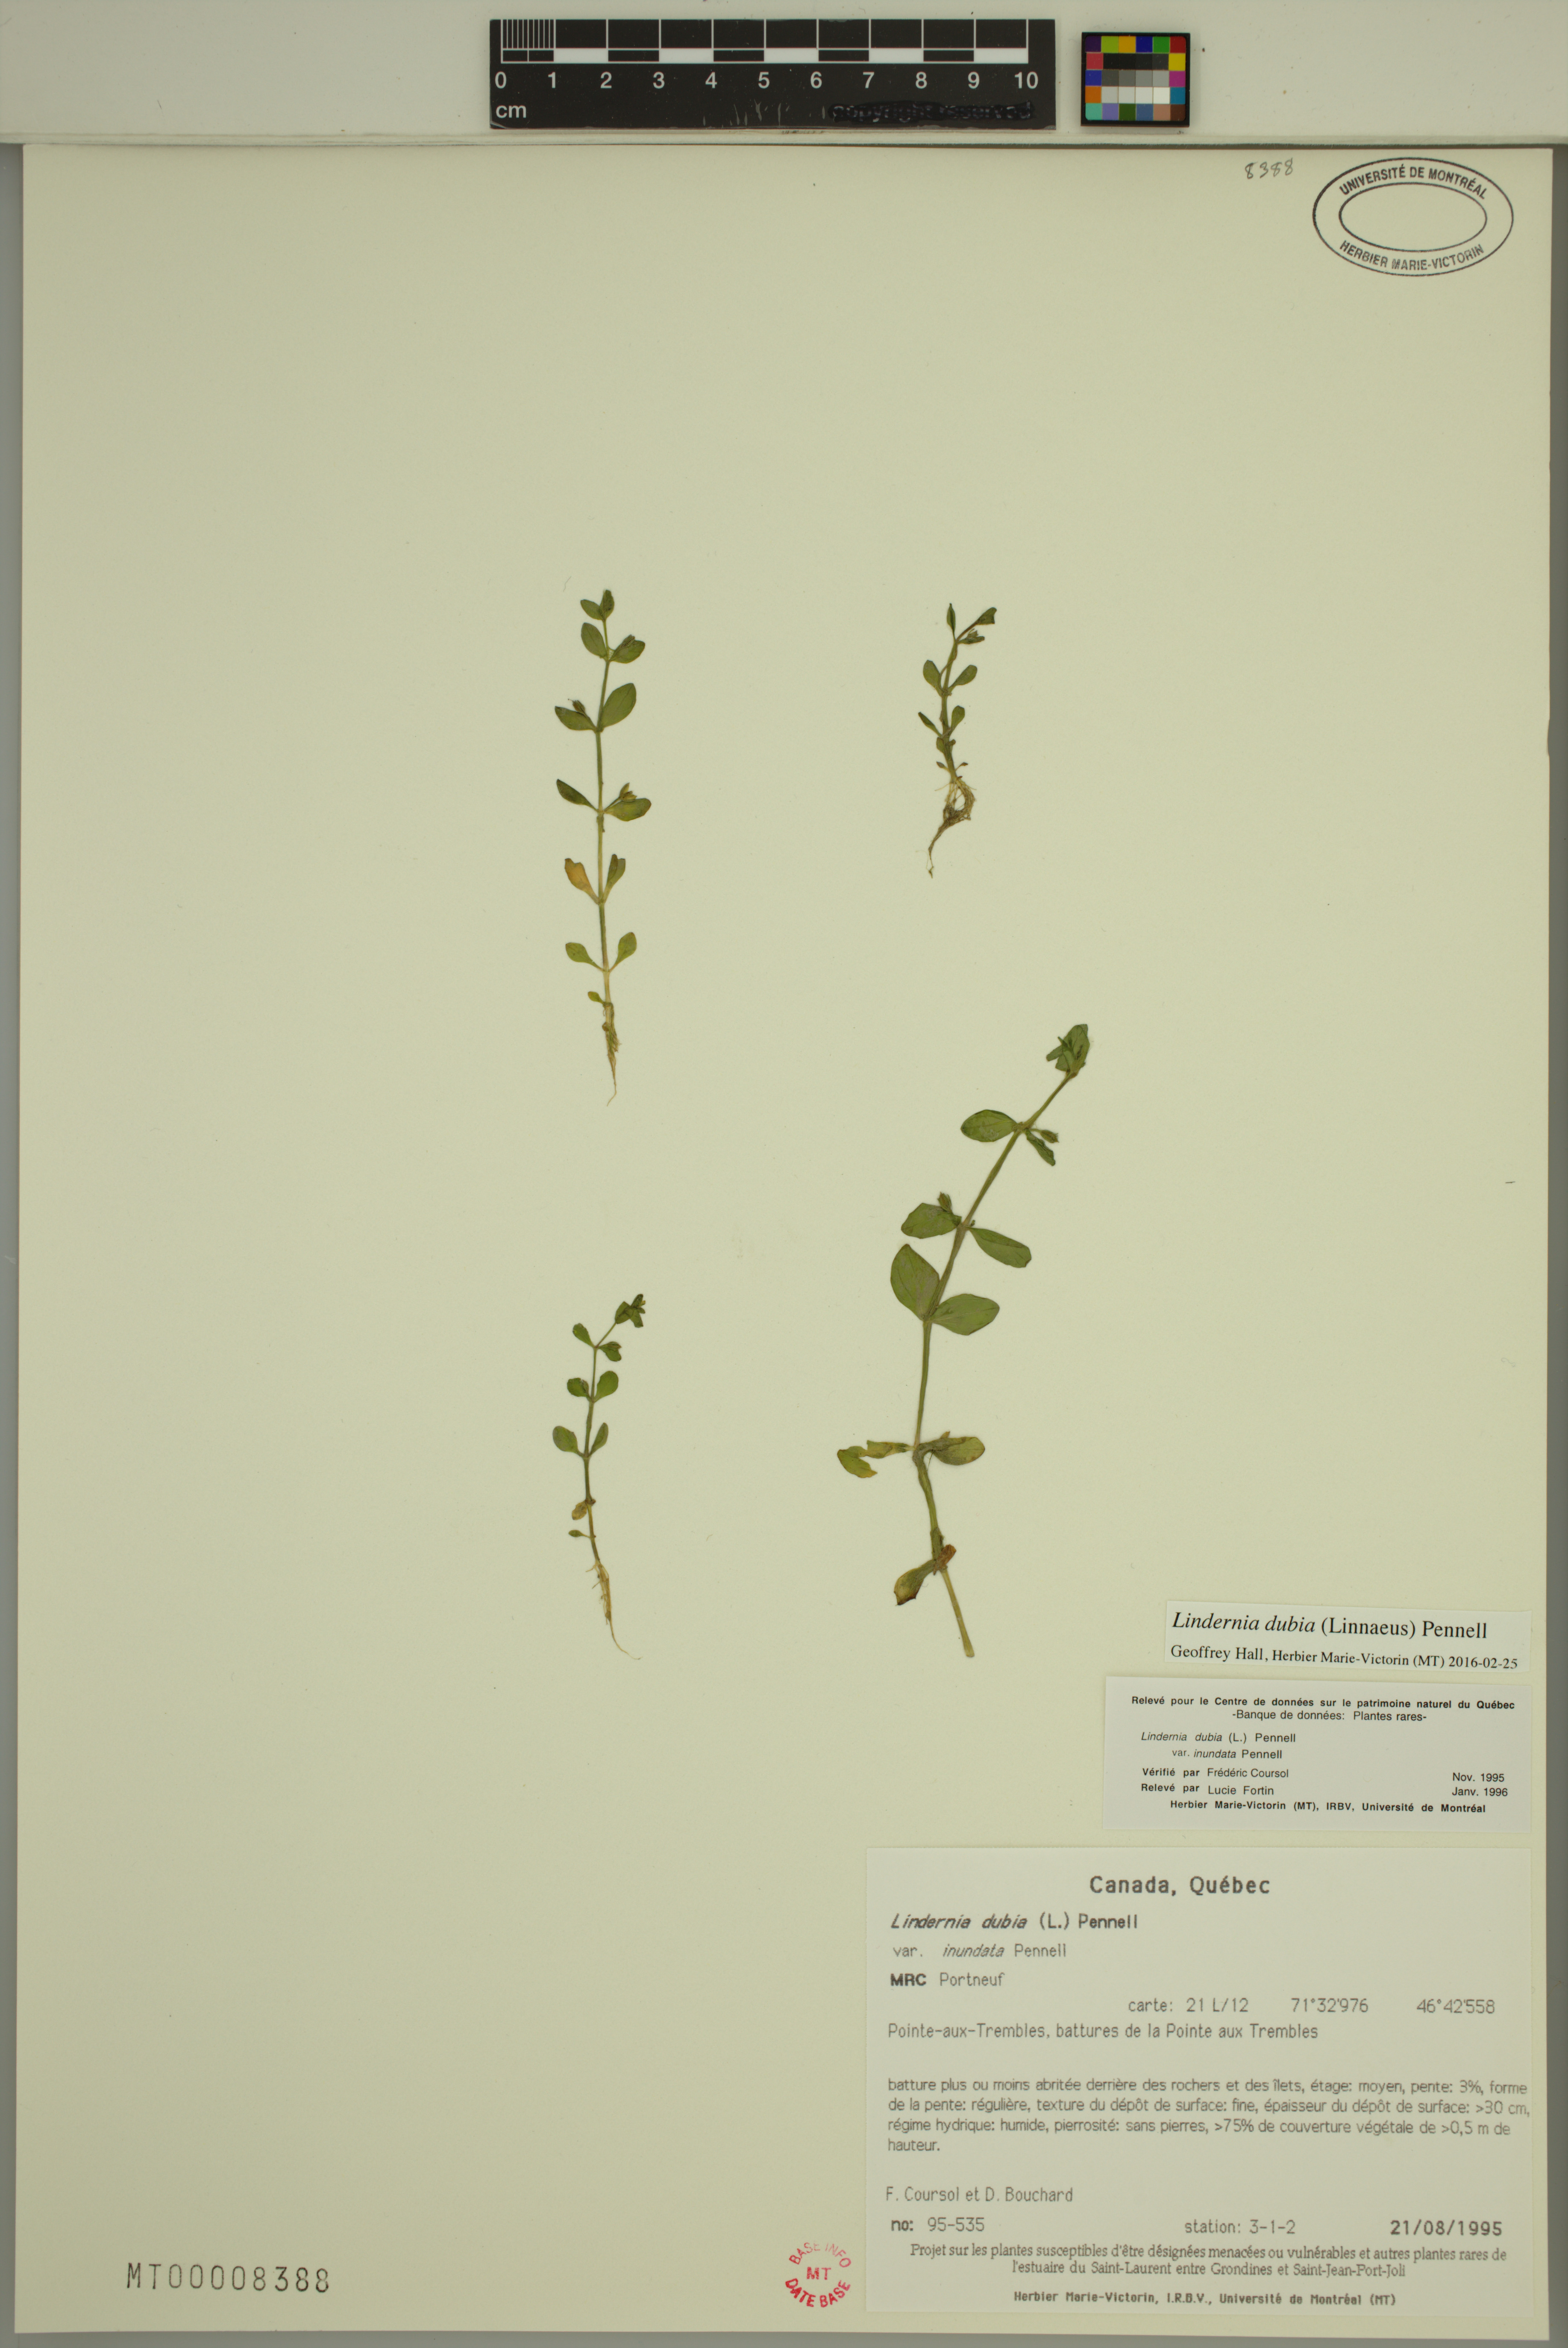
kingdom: Plantae
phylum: Tracheophyta
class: Magnoliopsida
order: Lamiales
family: Linderniaceae
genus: Lindernia
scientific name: Lindernia dubia
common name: Annual false pimpernel
